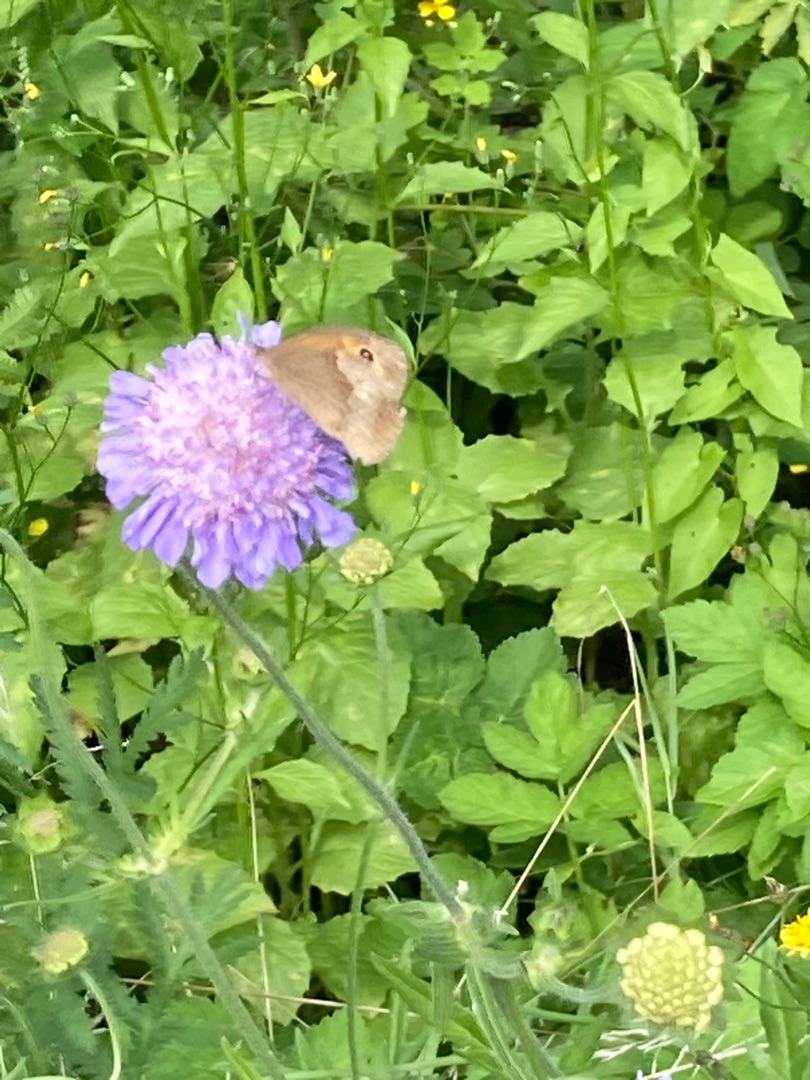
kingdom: Animalia
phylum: Arthropoda
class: Insecta
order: Lepidoptera
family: Nymphalidae
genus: Maniola
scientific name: Maniola jurtina
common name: Græsrandøje
